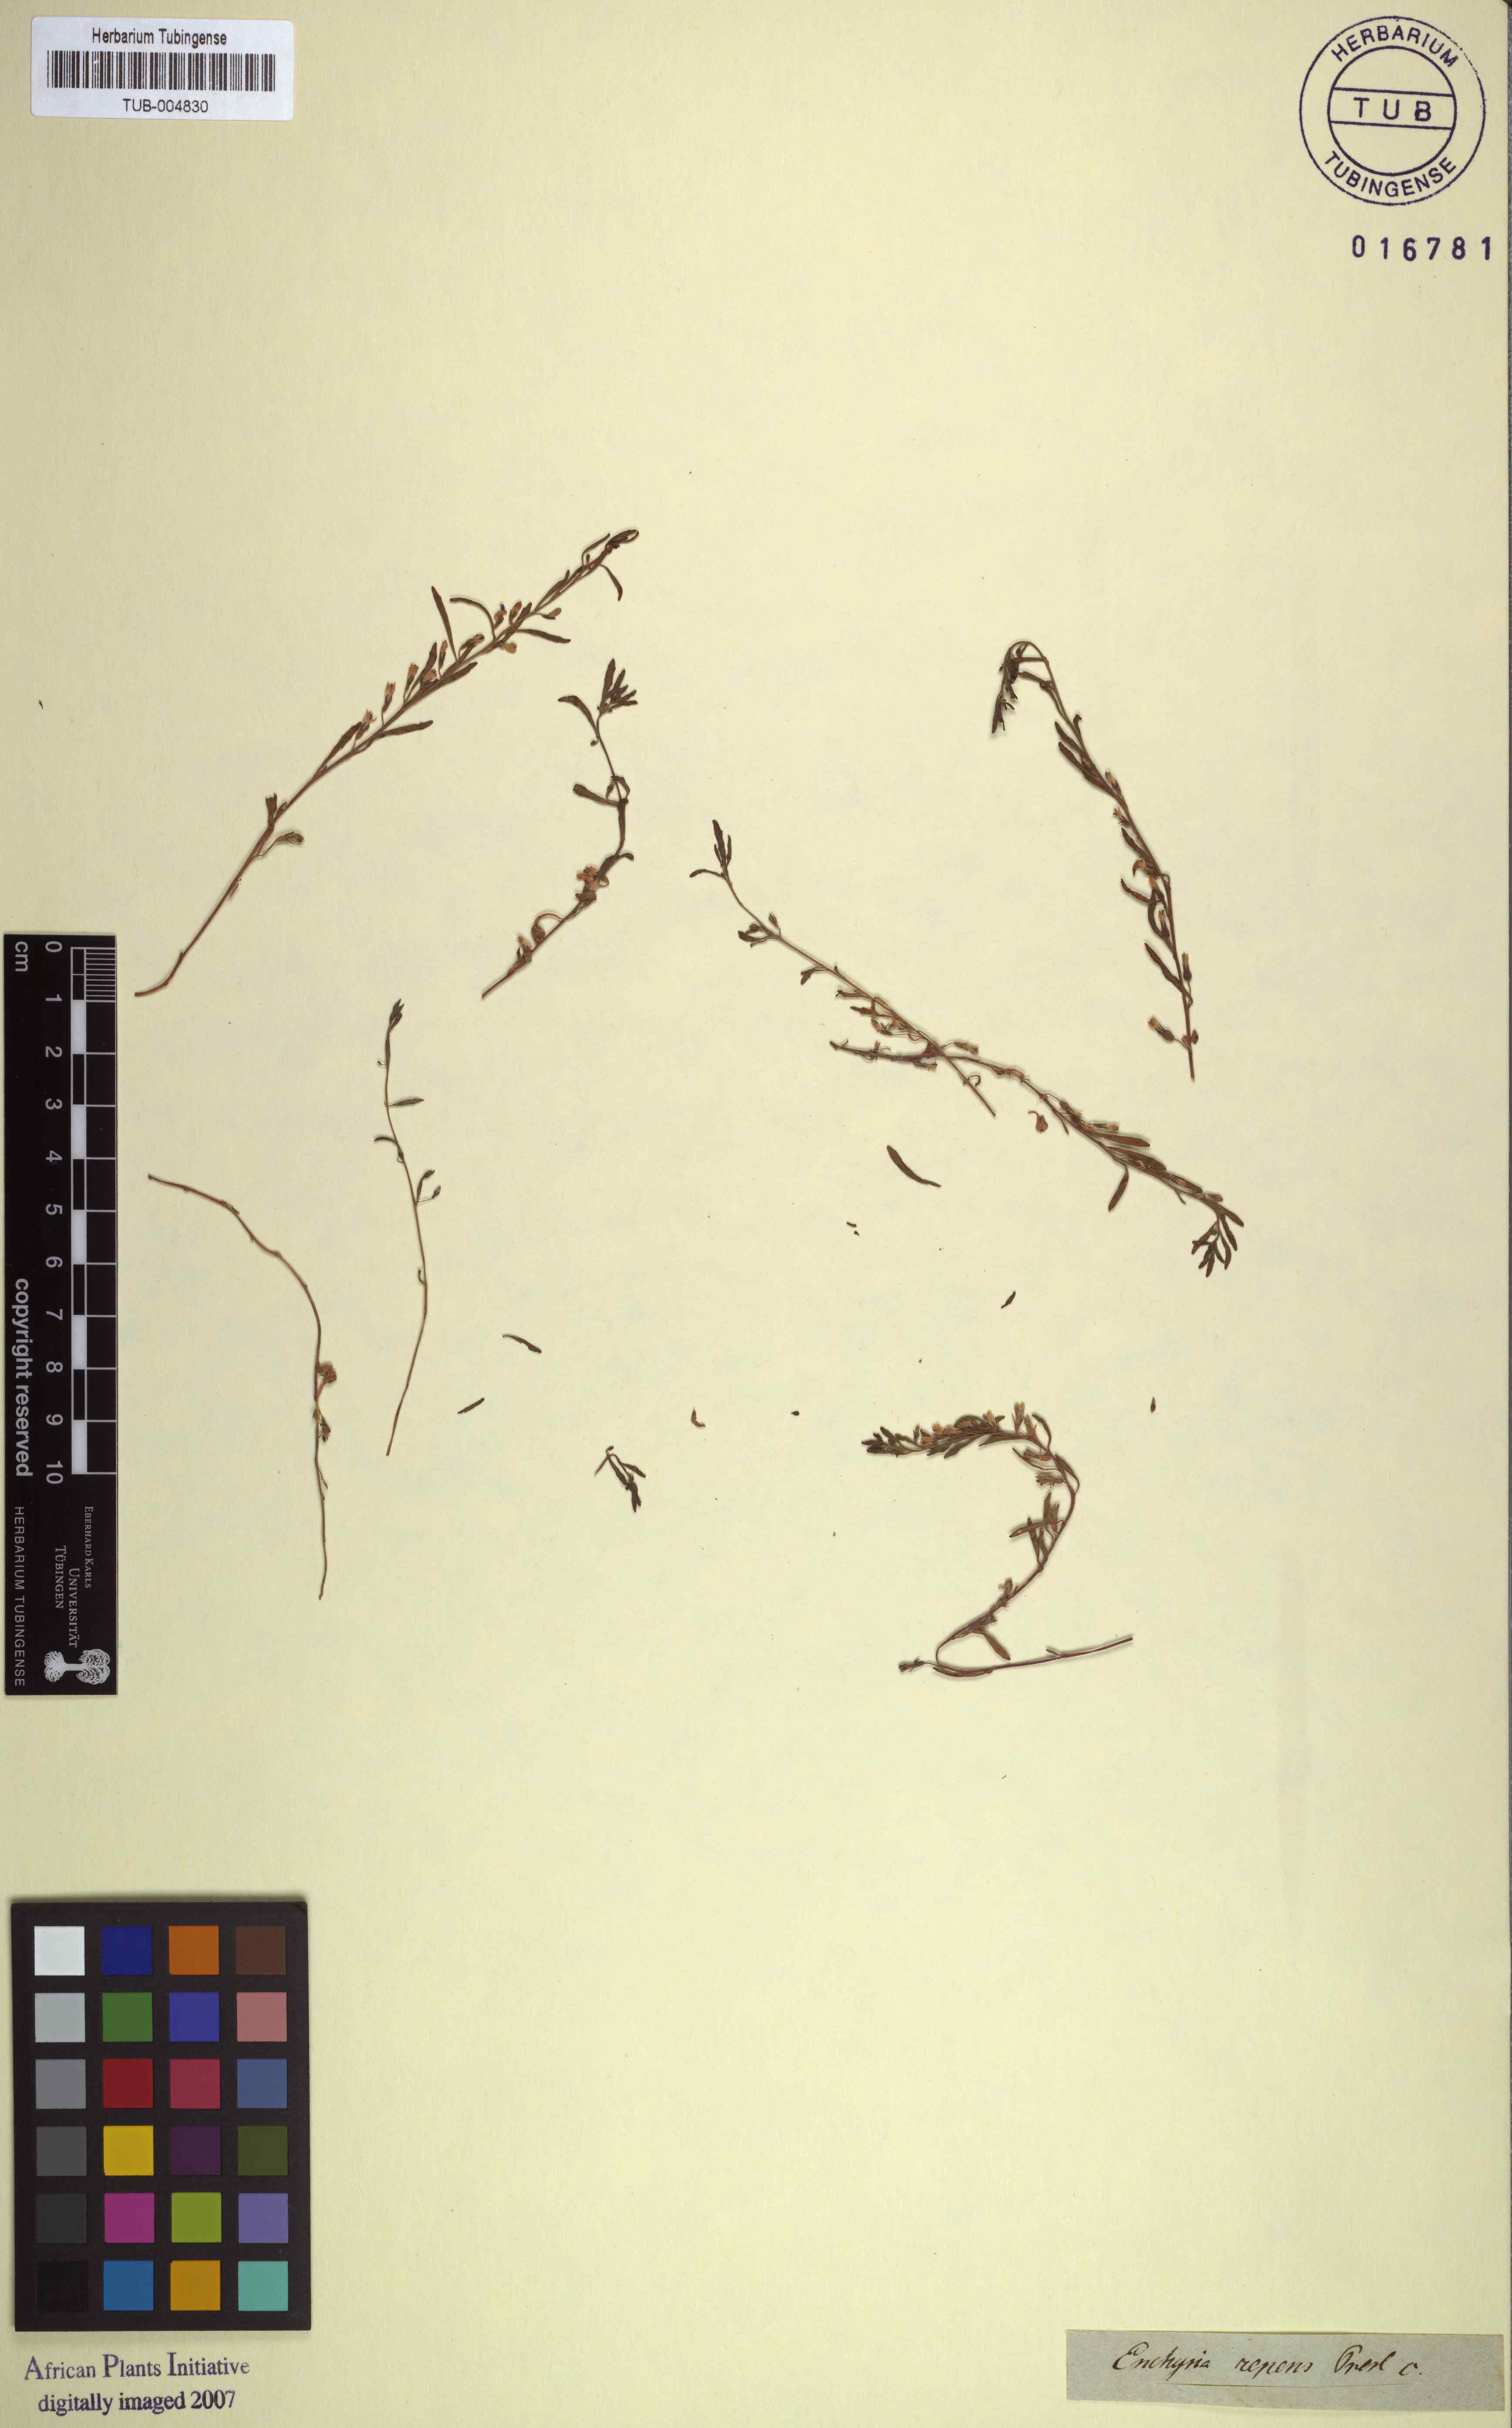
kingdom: Plantae
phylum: Tracheophyta
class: Magnoliopsida
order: Asterales
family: Campanulaceae
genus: Lobelia
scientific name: Lobelia anceps
